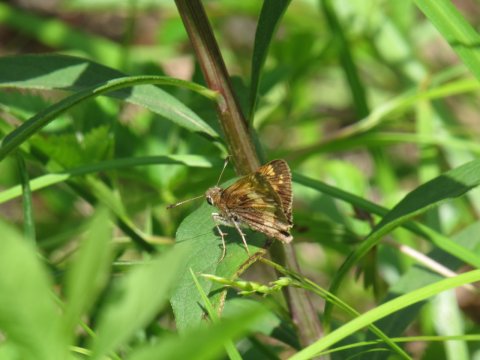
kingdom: Animalia
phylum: Arthropoda
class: Insecta
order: Lepidoptera
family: Hesperiidae
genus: Lon
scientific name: Lon hobomok
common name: Hobomok Skipper
